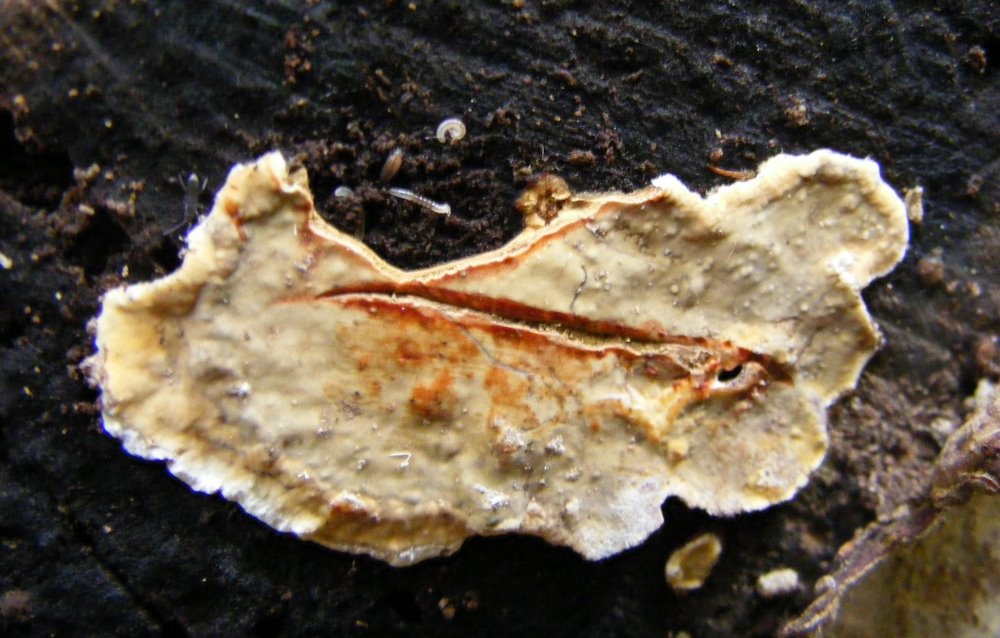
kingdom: Fungi
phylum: Basidiomycota
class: Agaricomycetes
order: Russulales
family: Stereaceae
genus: Stereum
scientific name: Stereum rugosum
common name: rynket lædersvamp
